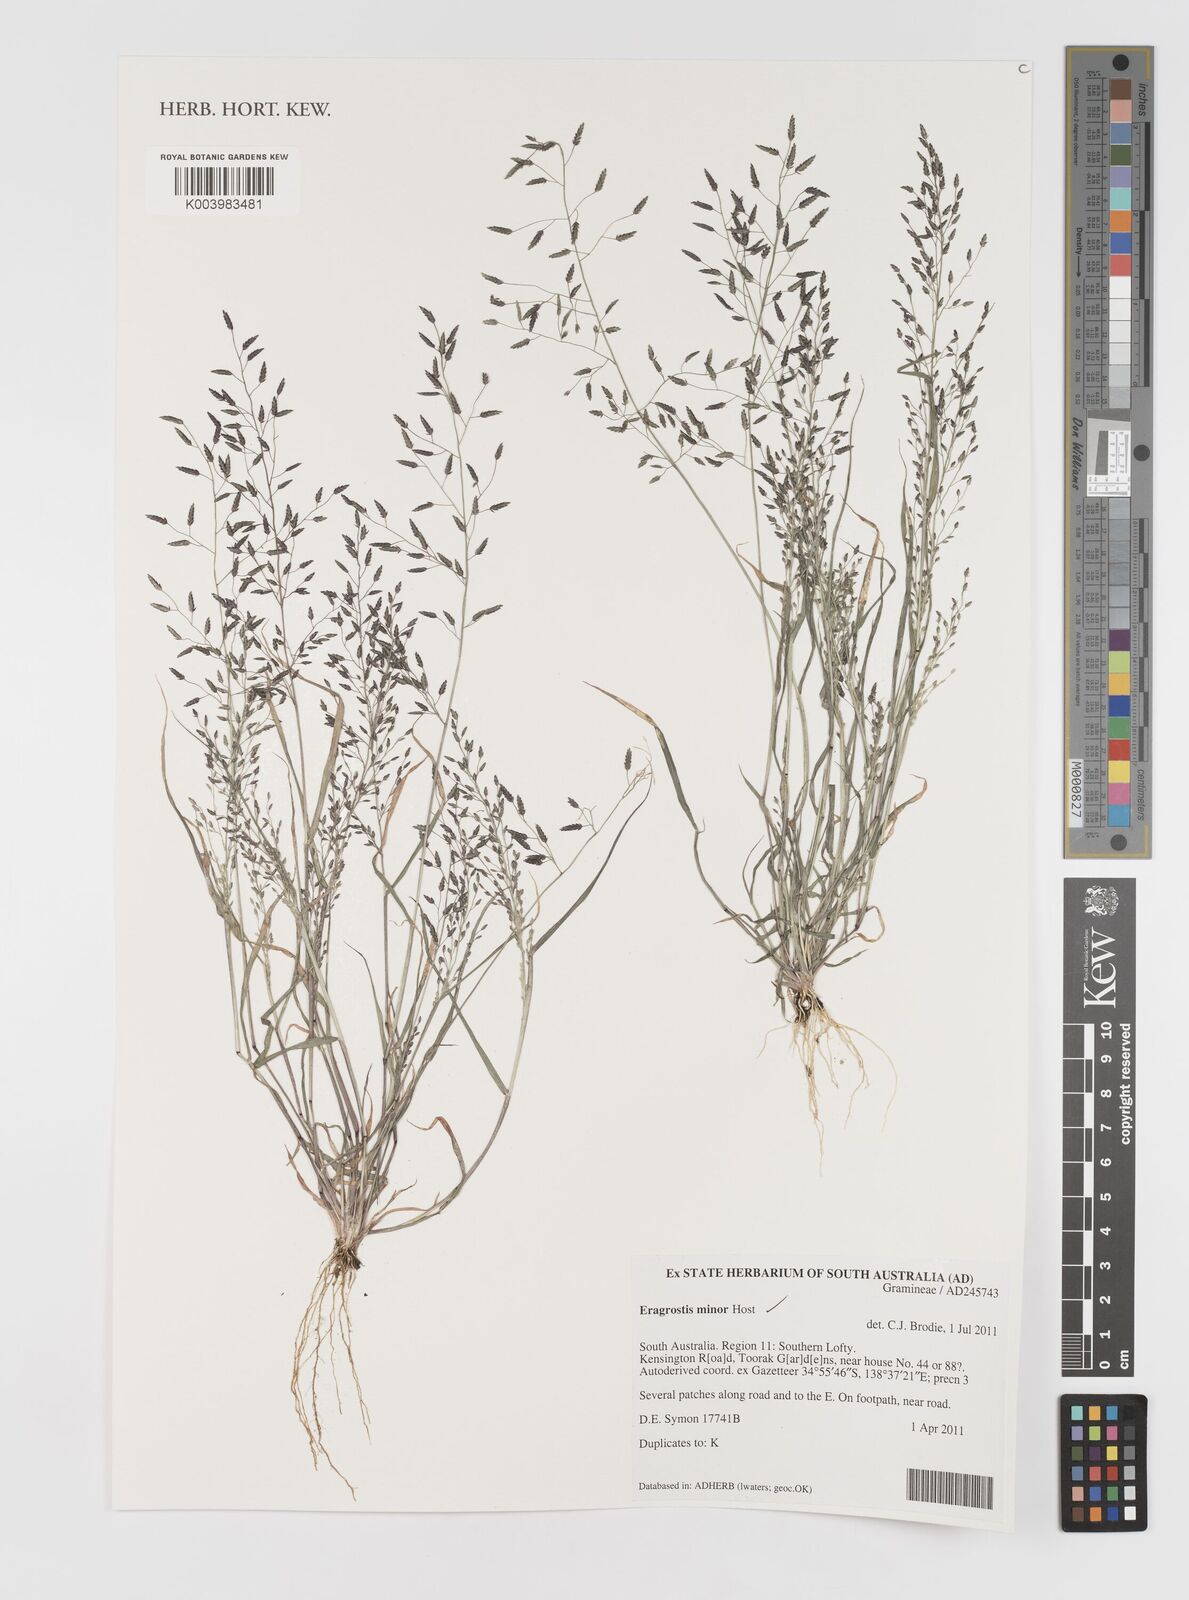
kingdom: Plantae
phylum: Tracheophyta
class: Liliopsida
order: Poales
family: Poaceae
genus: Eragrostis
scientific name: Eragrostis minor
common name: Small love-grass
